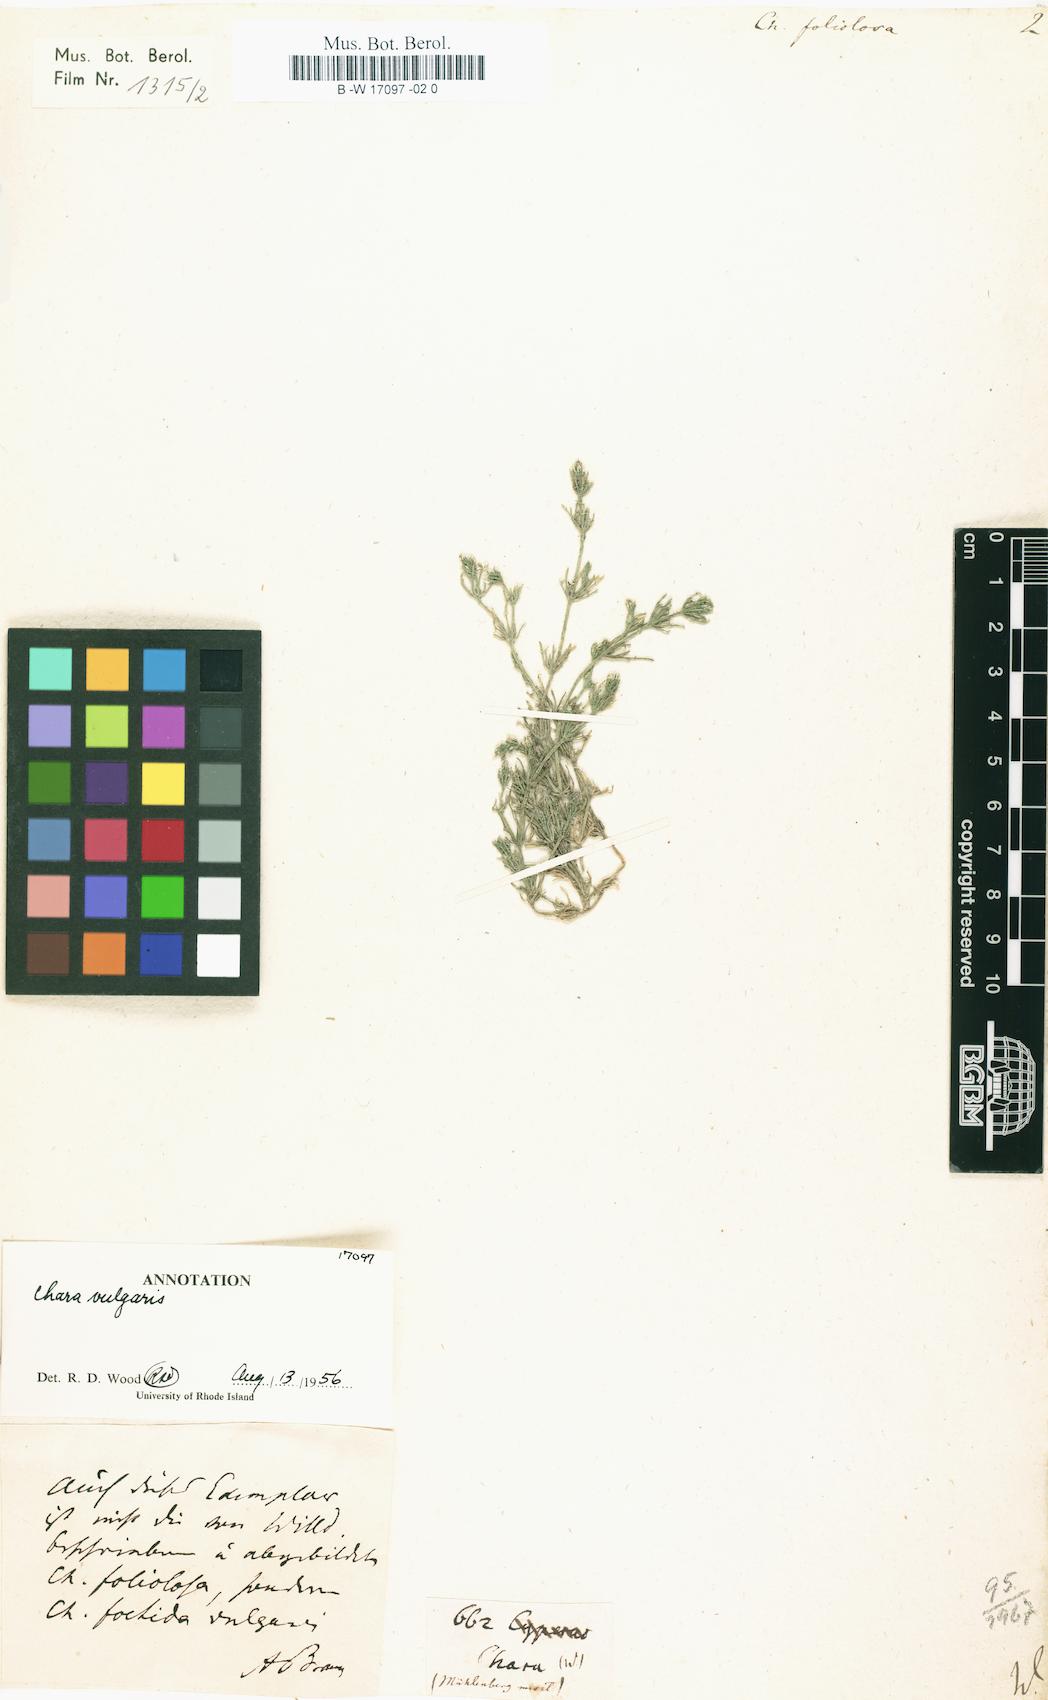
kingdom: Plantae
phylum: Charophyta
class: Charophyceae
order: Charales
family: Characeae
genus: Chara
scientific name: Chara foliolosa
